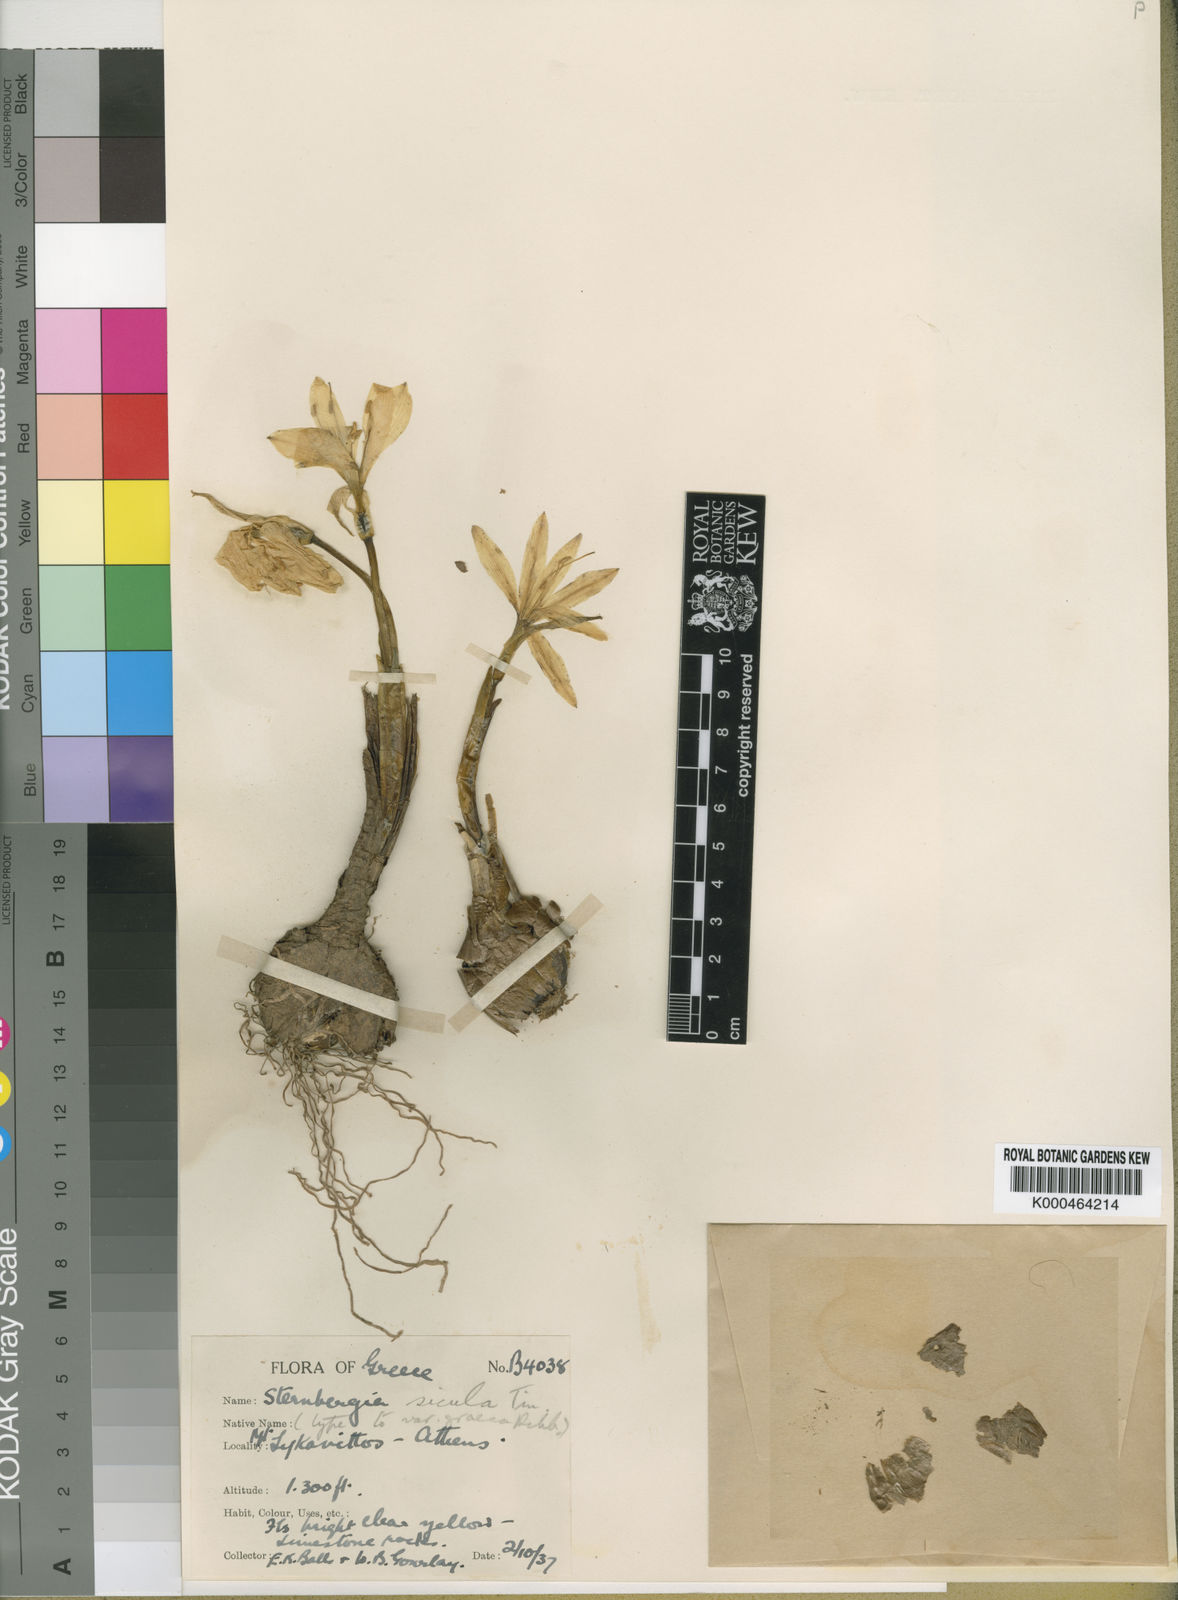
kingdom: Plantae
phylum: Tracheophyta
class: Liliopsida
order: Asparagales
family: Amaryllidaceae
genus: Sternbergia
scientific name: Sternbergia
